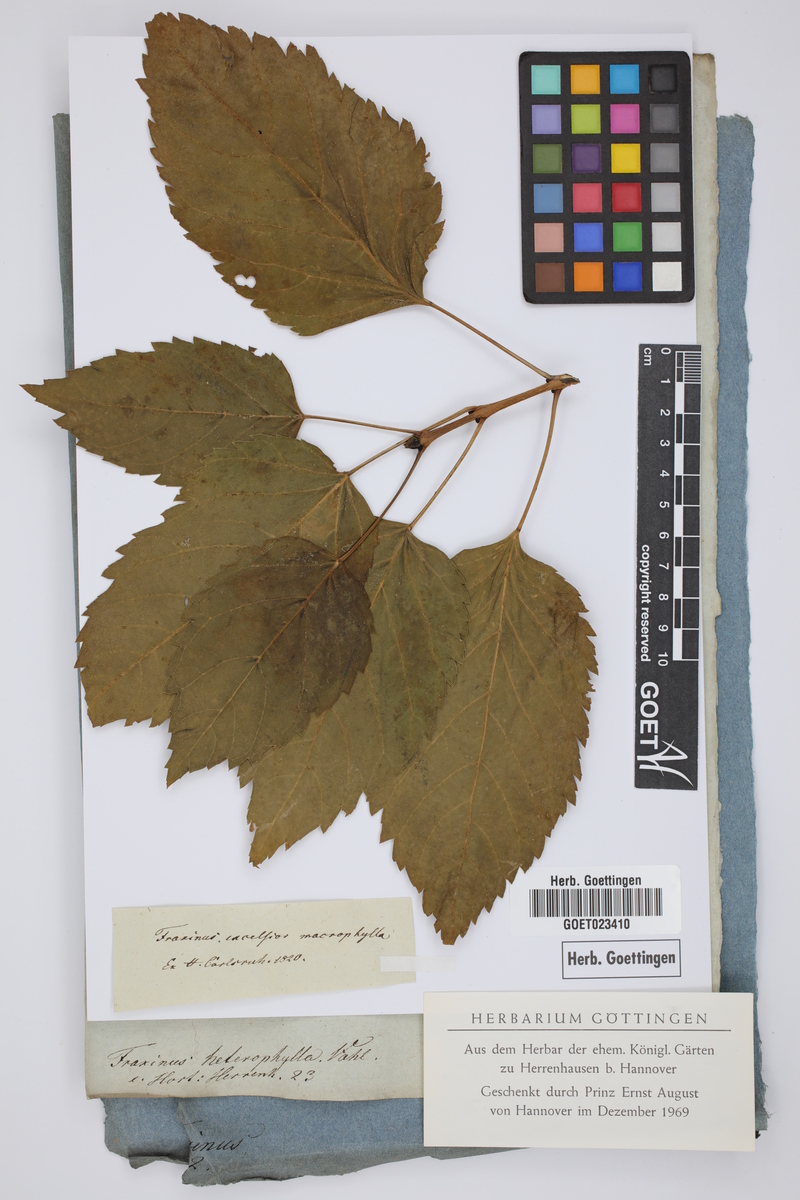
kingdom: Plantae
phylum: Tracheophyta
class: Magnoliopsida
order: Lamiales
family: Oleaceae
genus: Fraxinus
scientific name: Fraxinus excelsior
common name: European ash
